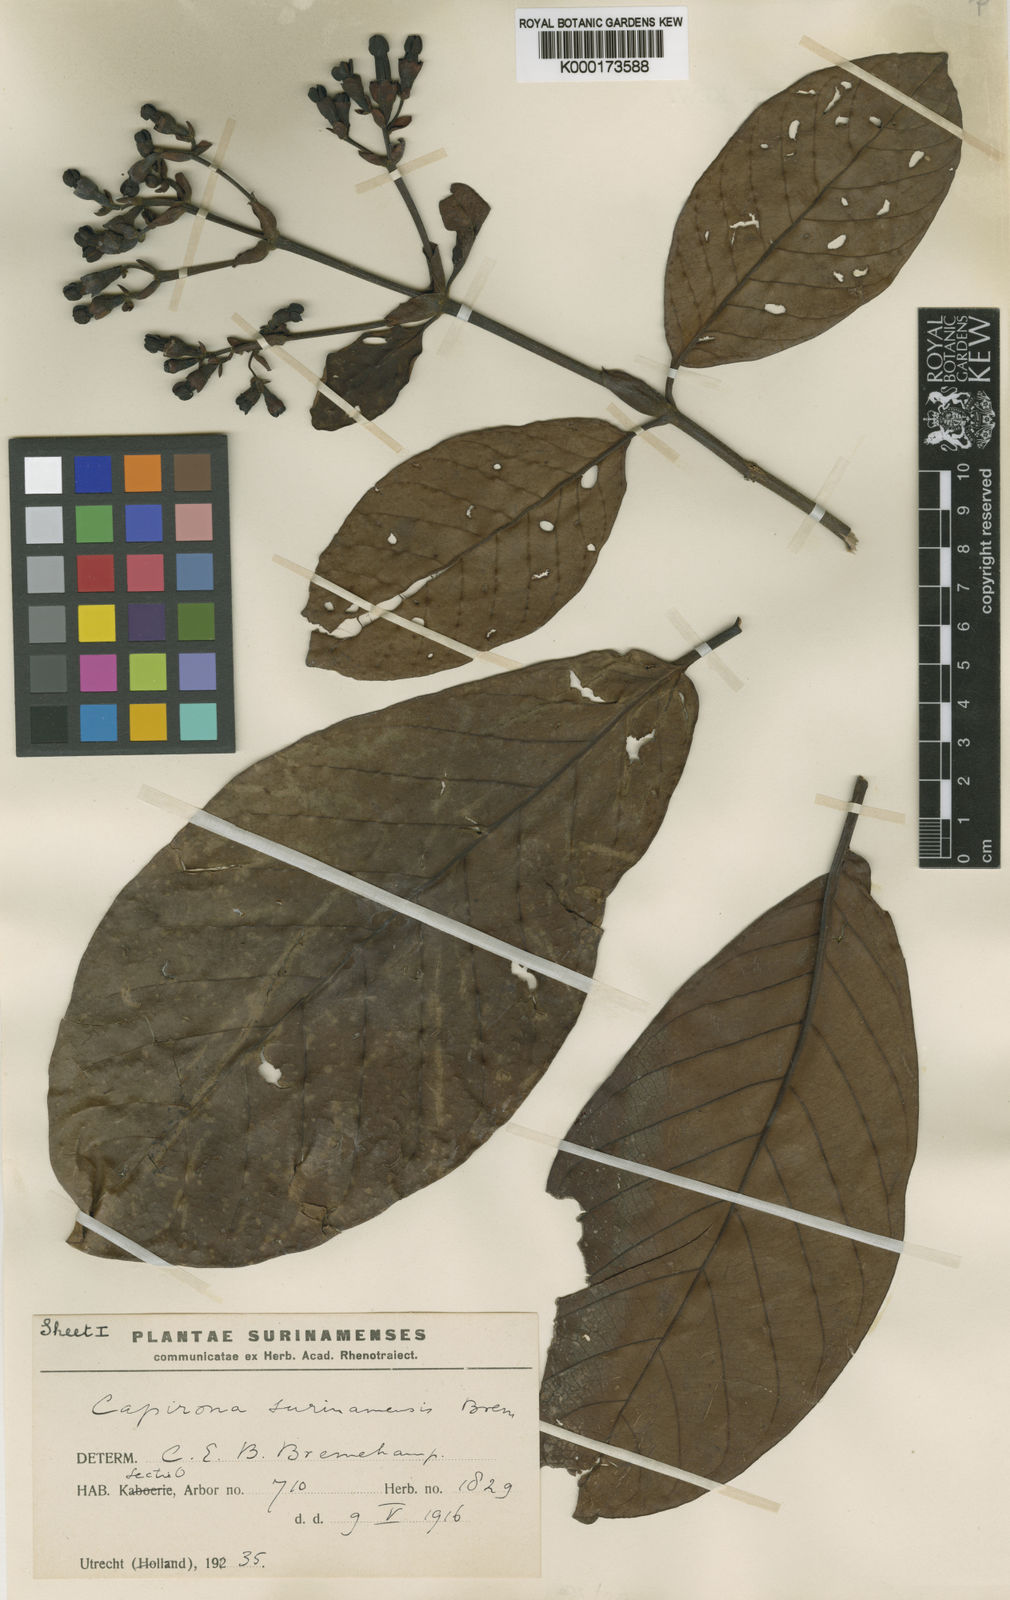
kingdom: Plantae
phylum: Tracheophyta
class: Magnoliopsida
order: Gentianales
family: Rubiaceae
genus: Capirona
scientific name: Capirona macrophylla
